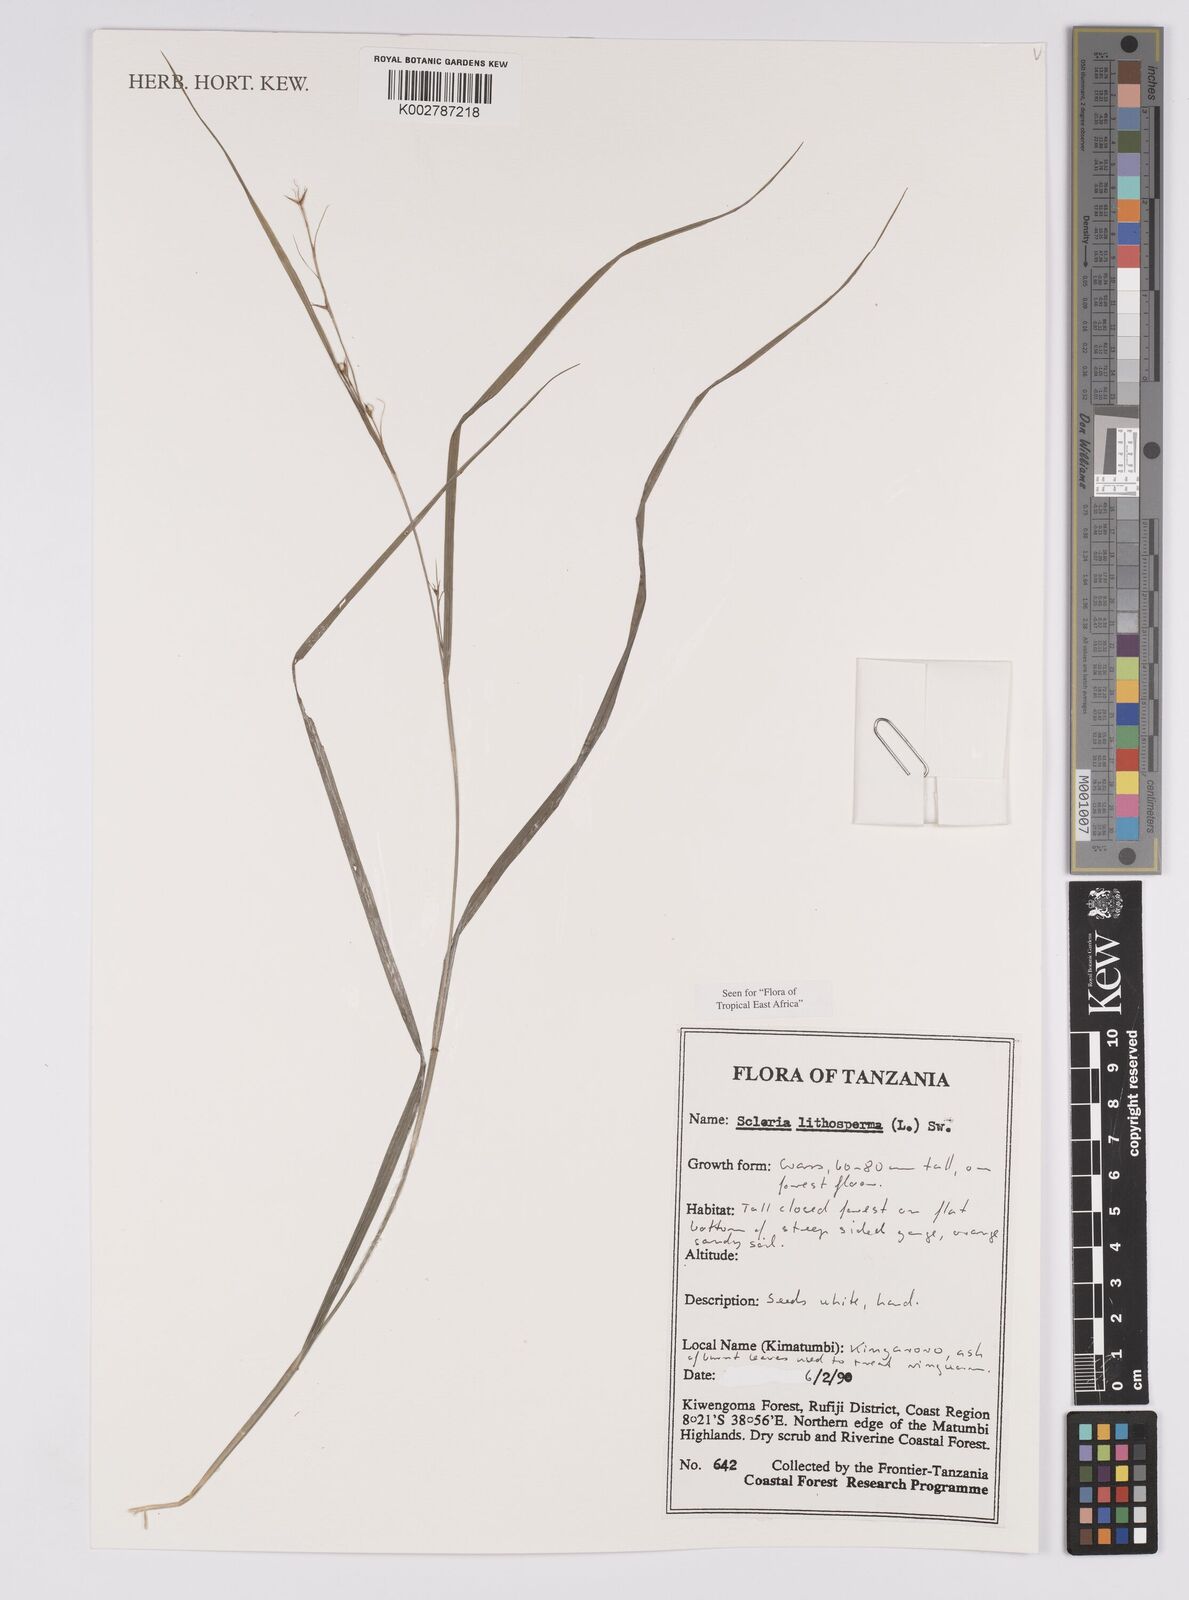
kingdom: Plantae
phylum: Tracheophyta
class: Liliopsida
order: Poales
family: Cyperaceae
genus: Scleria
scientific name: Scleria lithosperma
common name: Florida keys nut-rush
